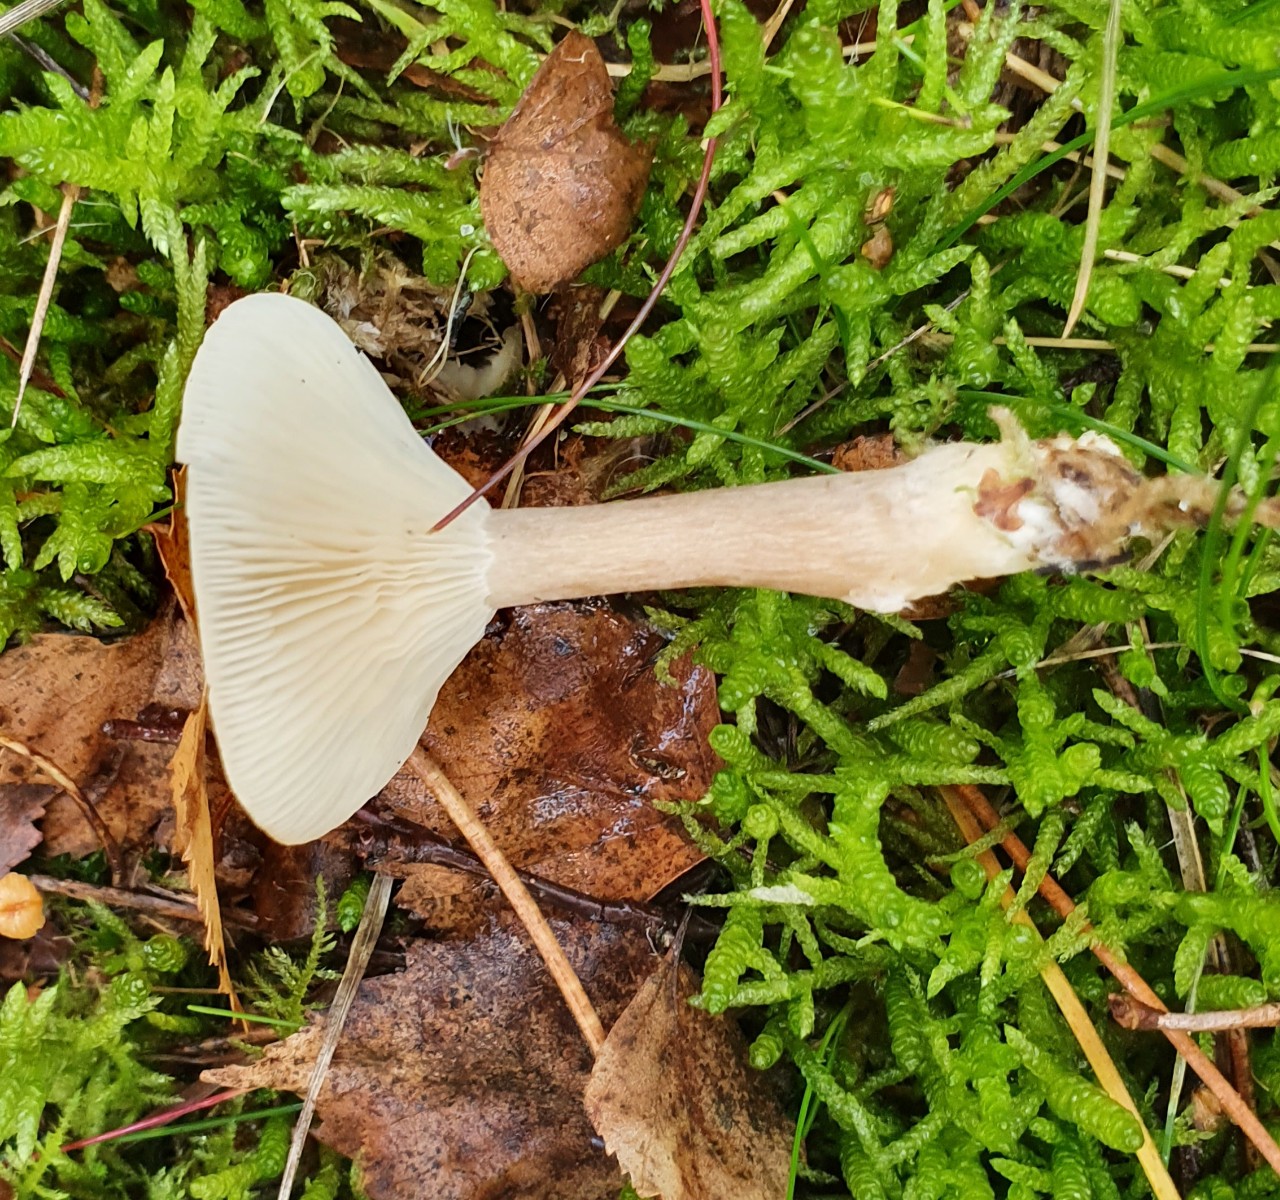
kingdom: Fungi
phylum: Basidiomycota
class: Agaricomycetes
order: Agaricales
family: Hygrophoraceae
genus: Ampulloclitocybe
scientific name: Ampulloclitocybe clavipes
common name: køllefod
